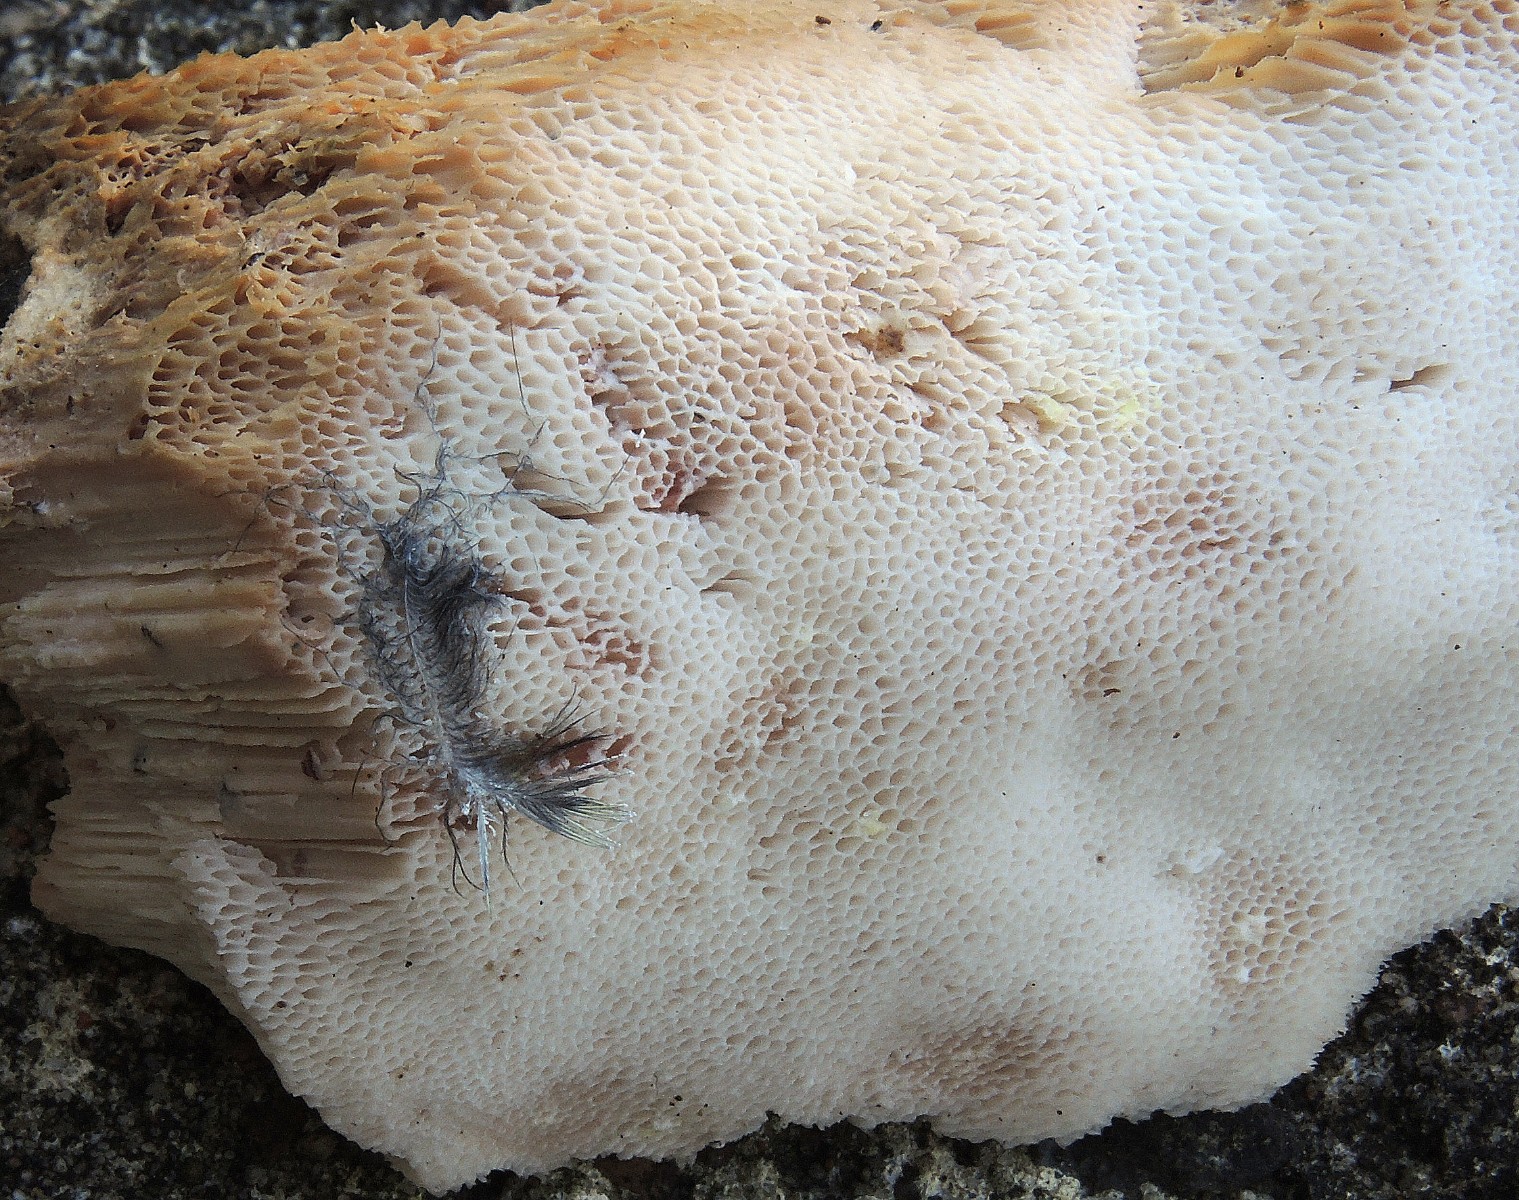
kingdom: Fungi
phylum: Basidiomycota
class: Agaricomycetes
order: Polyporales
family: Meruliaceae
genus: Pappia
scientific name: Pappia fissilis
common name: sej fedtporesvamp
